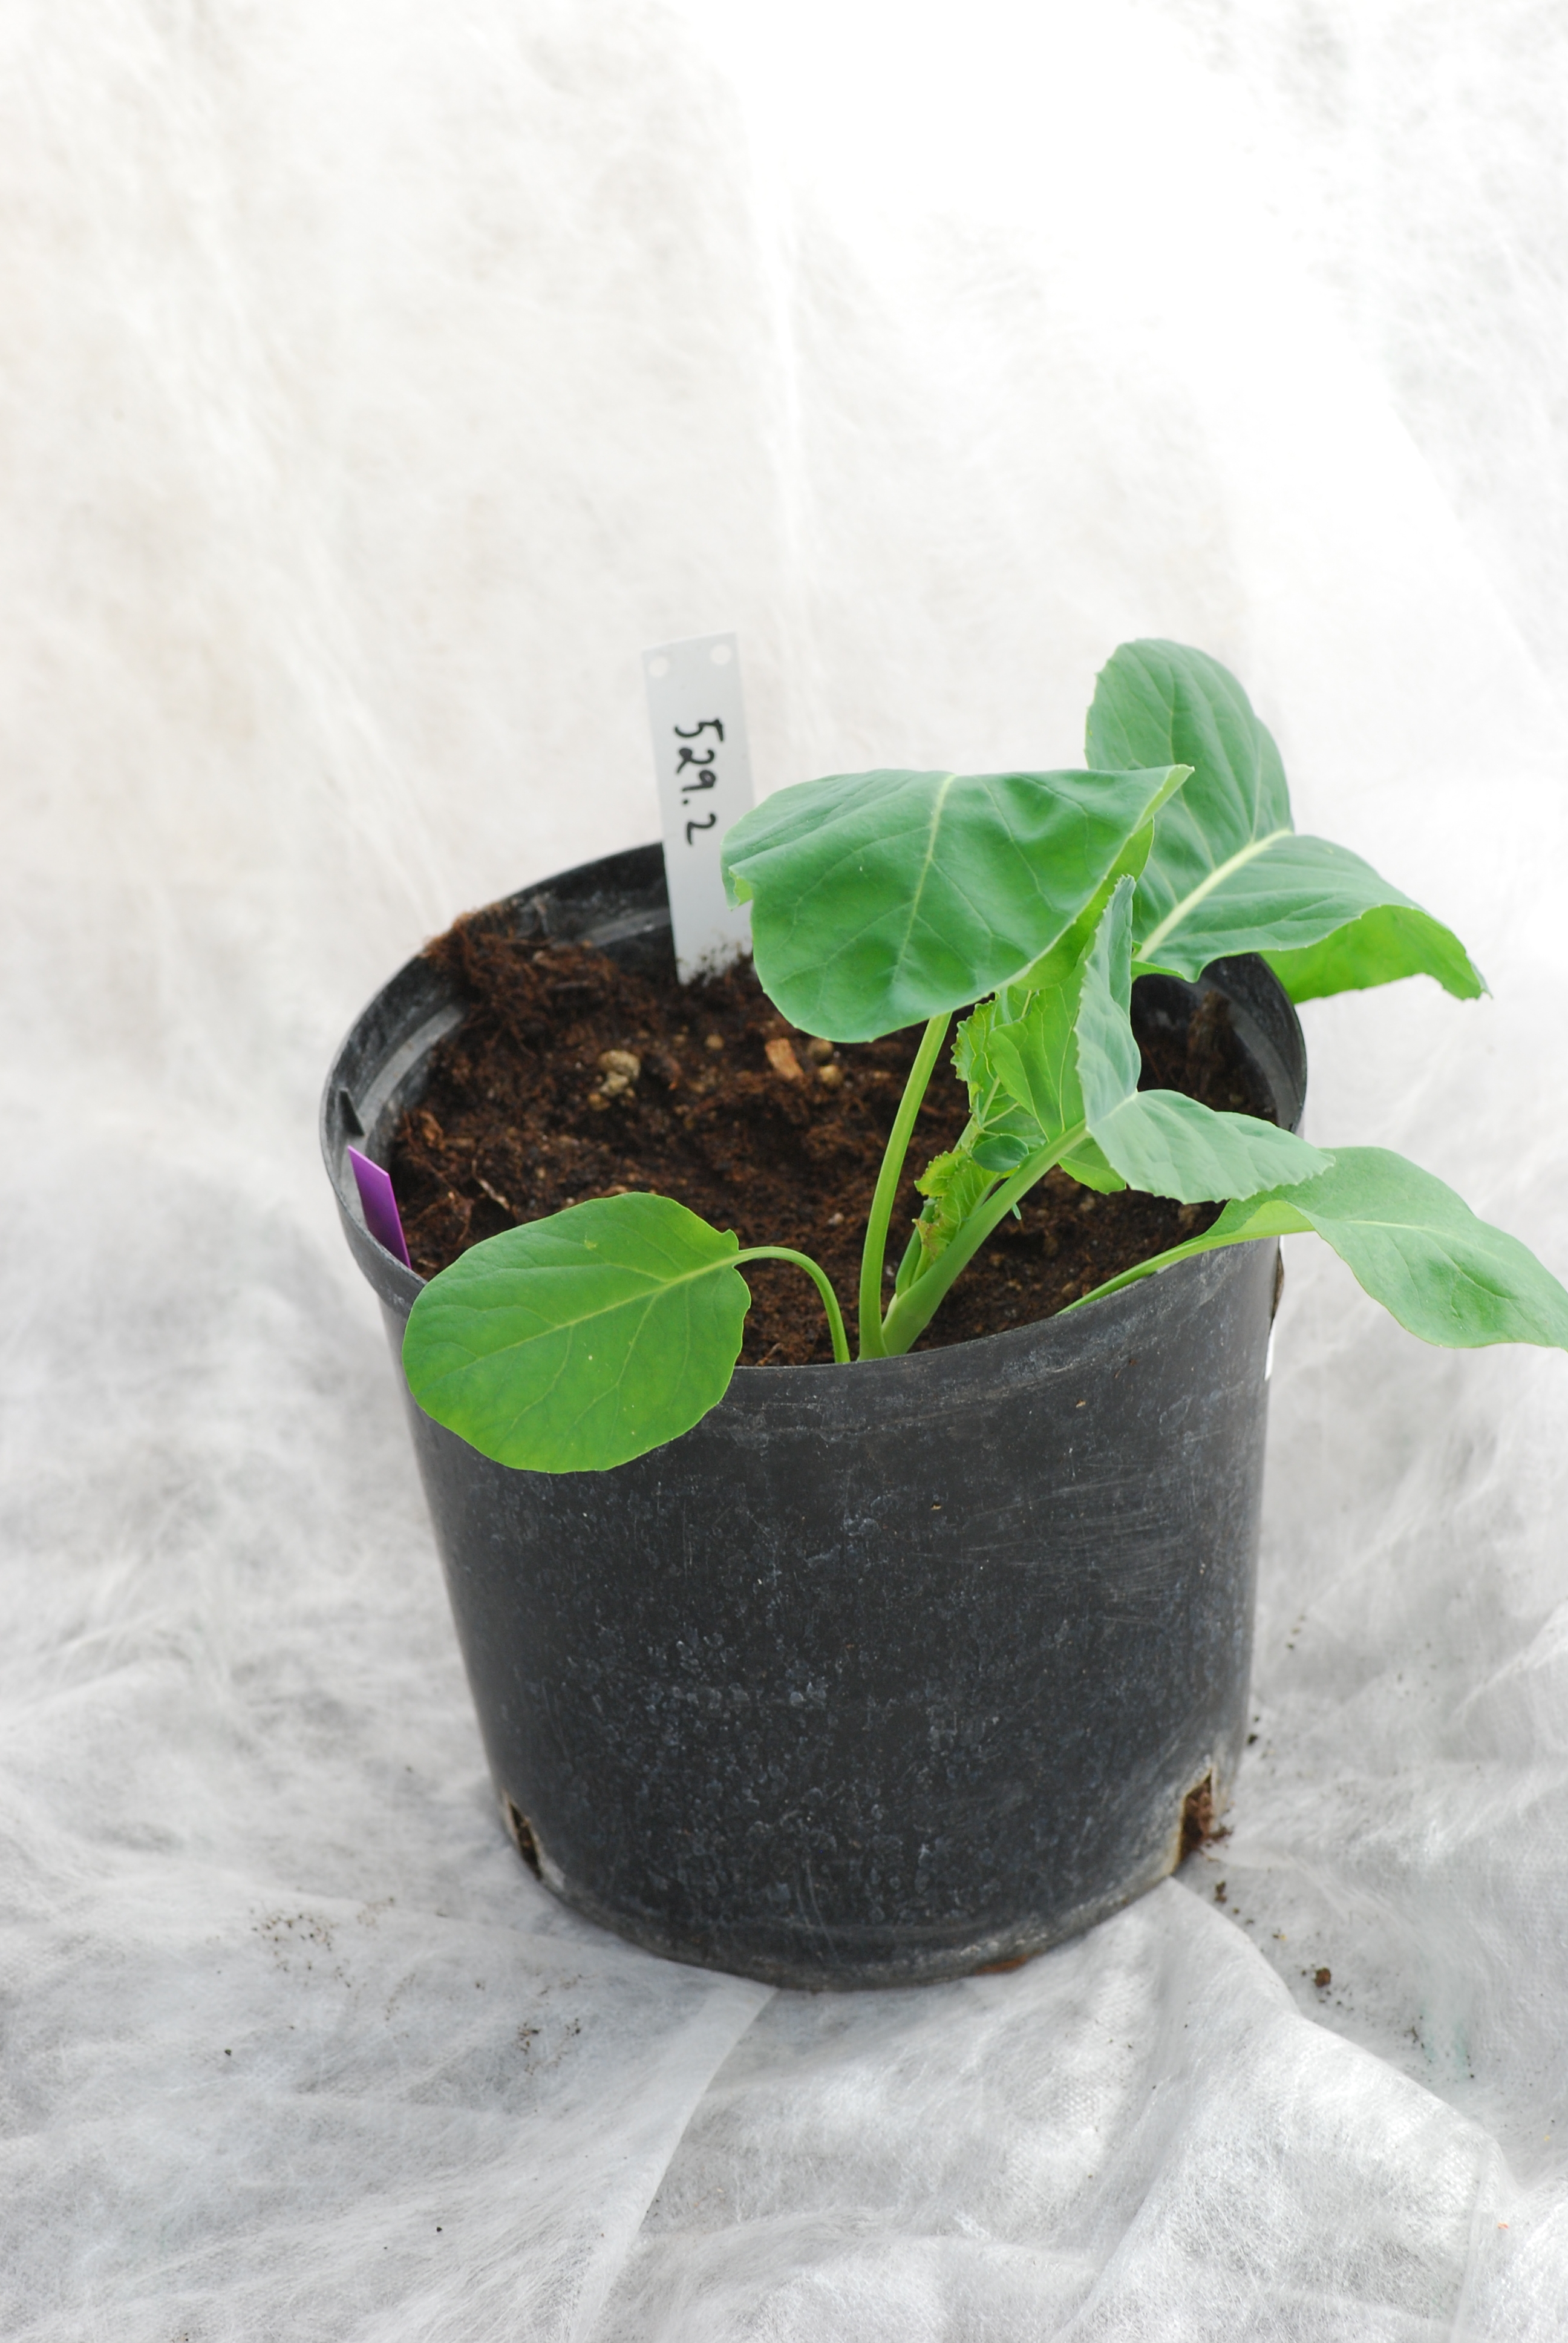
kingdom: Plantae
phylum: Tracheophyta
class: Magnoliopsida
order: Brassicales
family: Brassicaceae
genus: Brassica
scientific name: Brassica oleracea
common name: Cabbage
